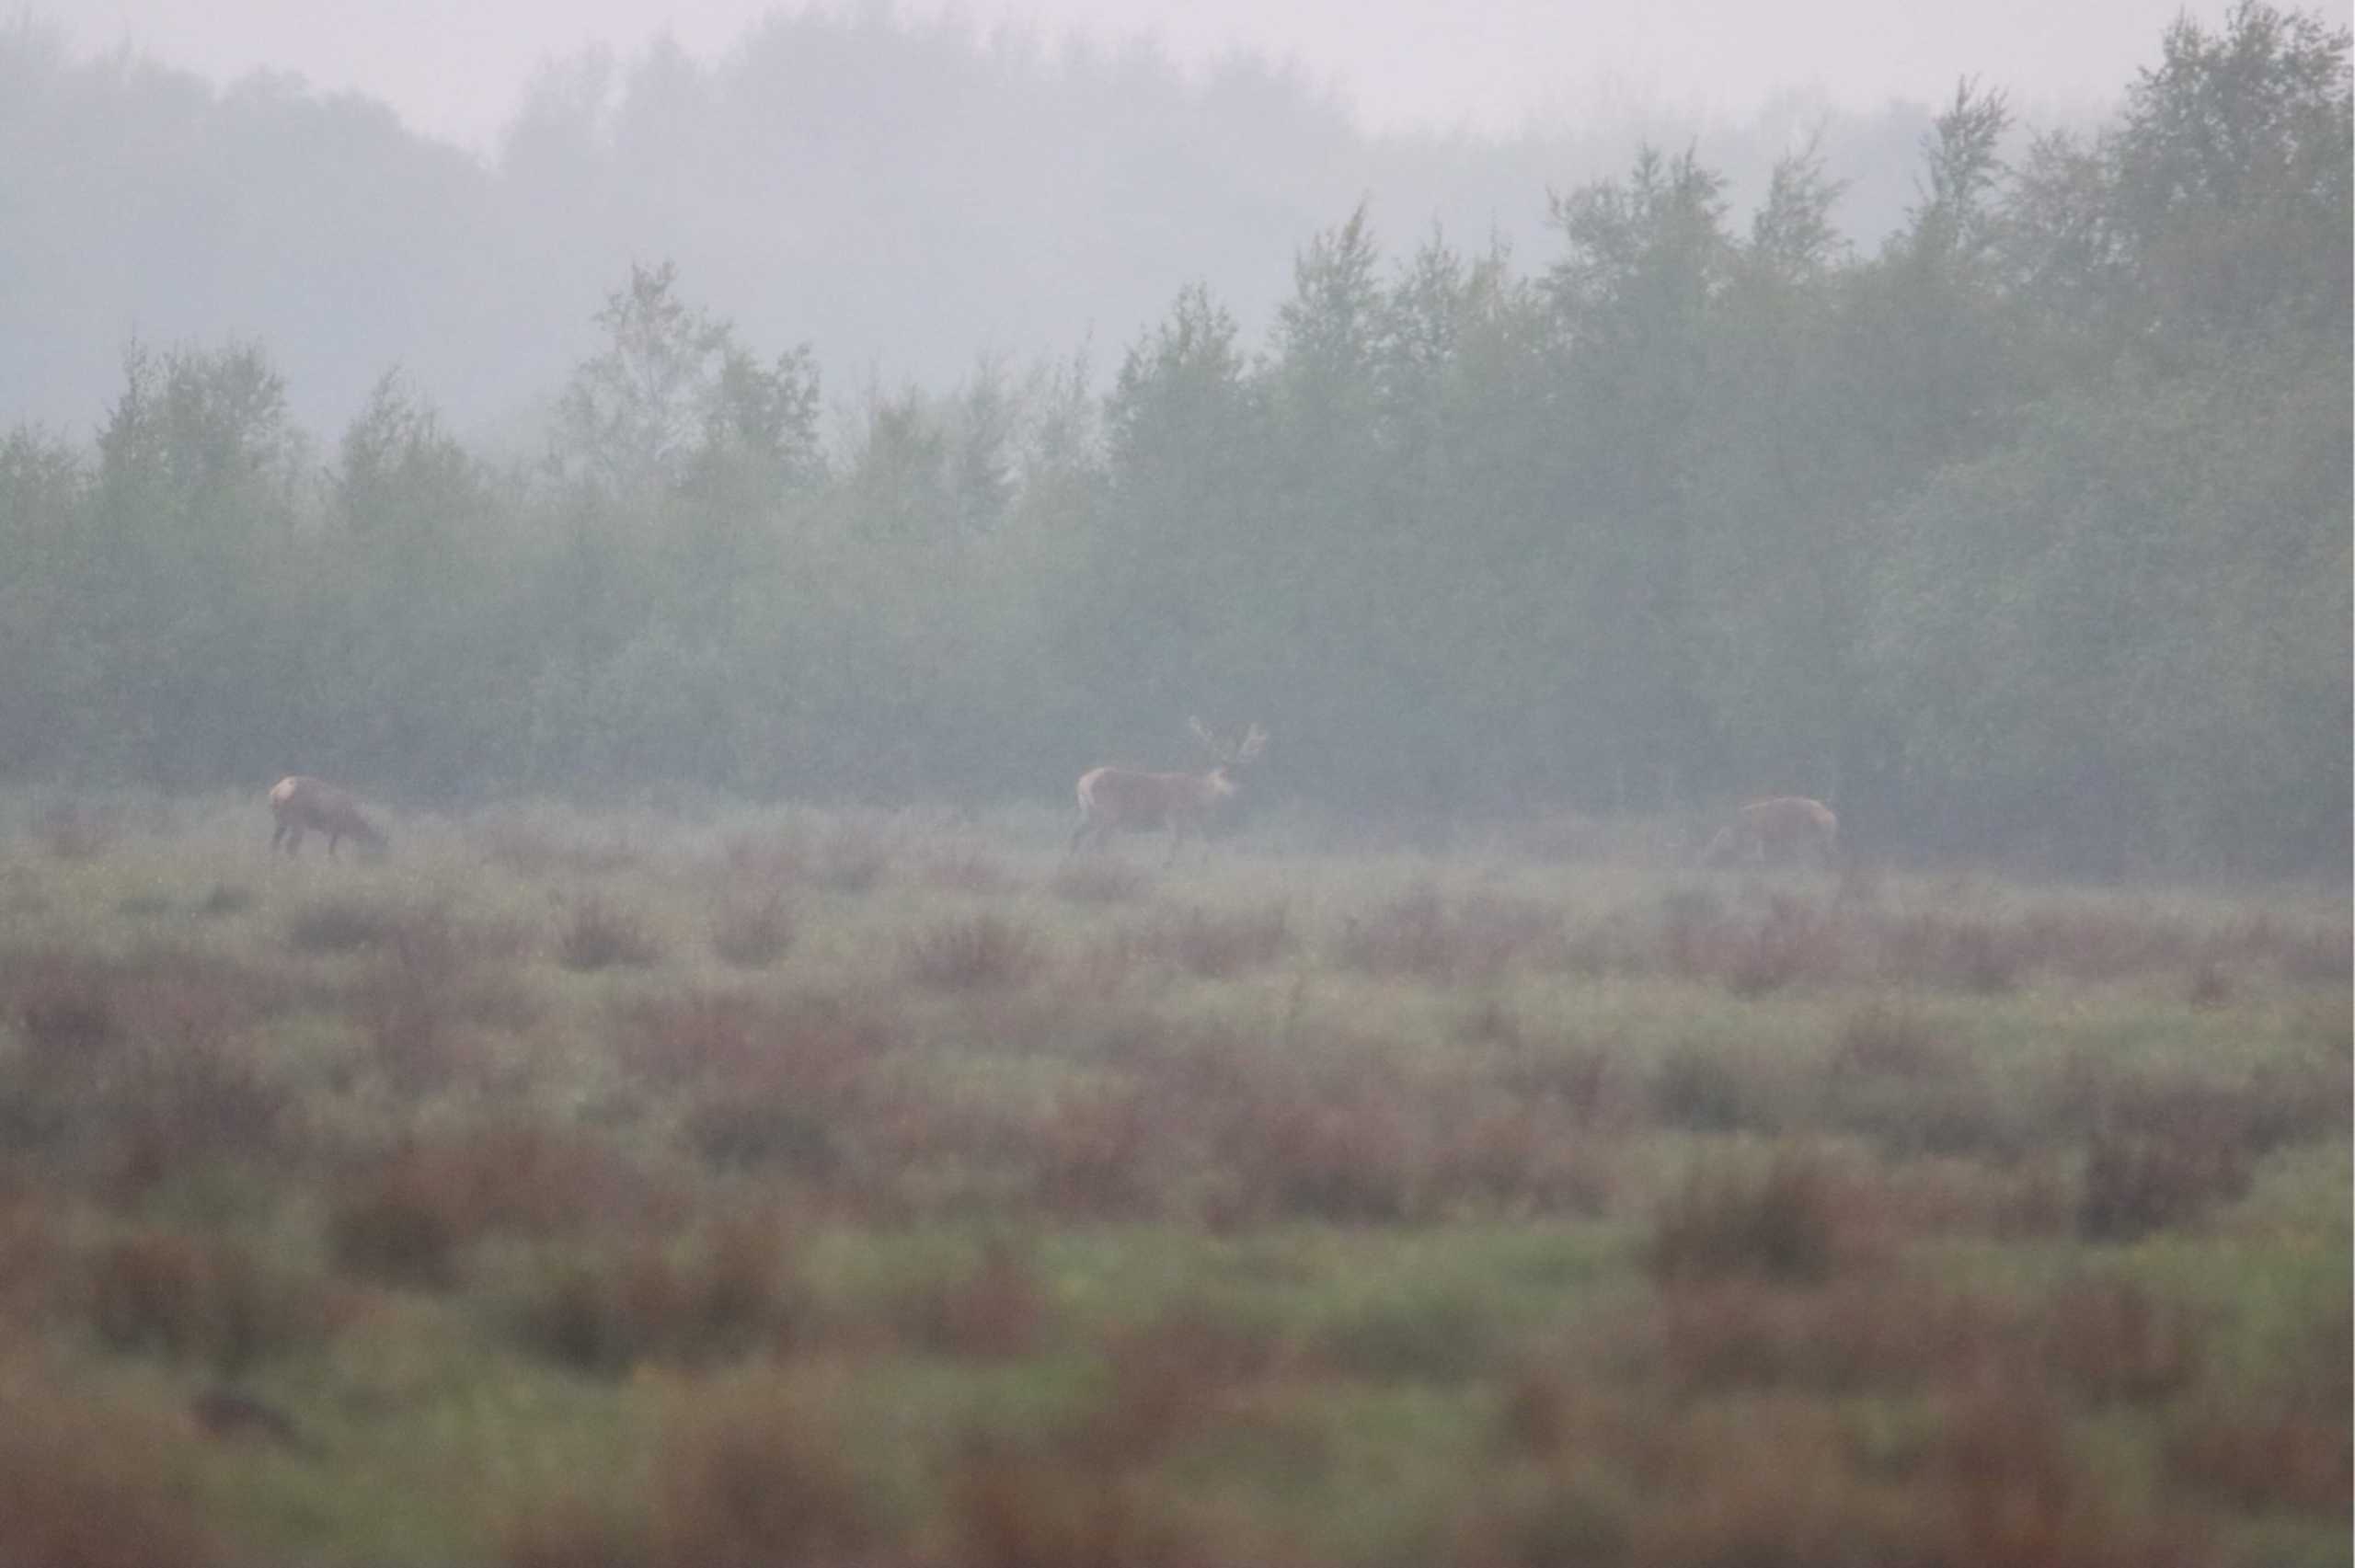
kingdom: Animalia
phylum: Chordata
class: Mammalia
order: Artiodactyla
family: Cervidae
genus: Cervus
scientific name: Cervus elaphus
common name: Krondyr
